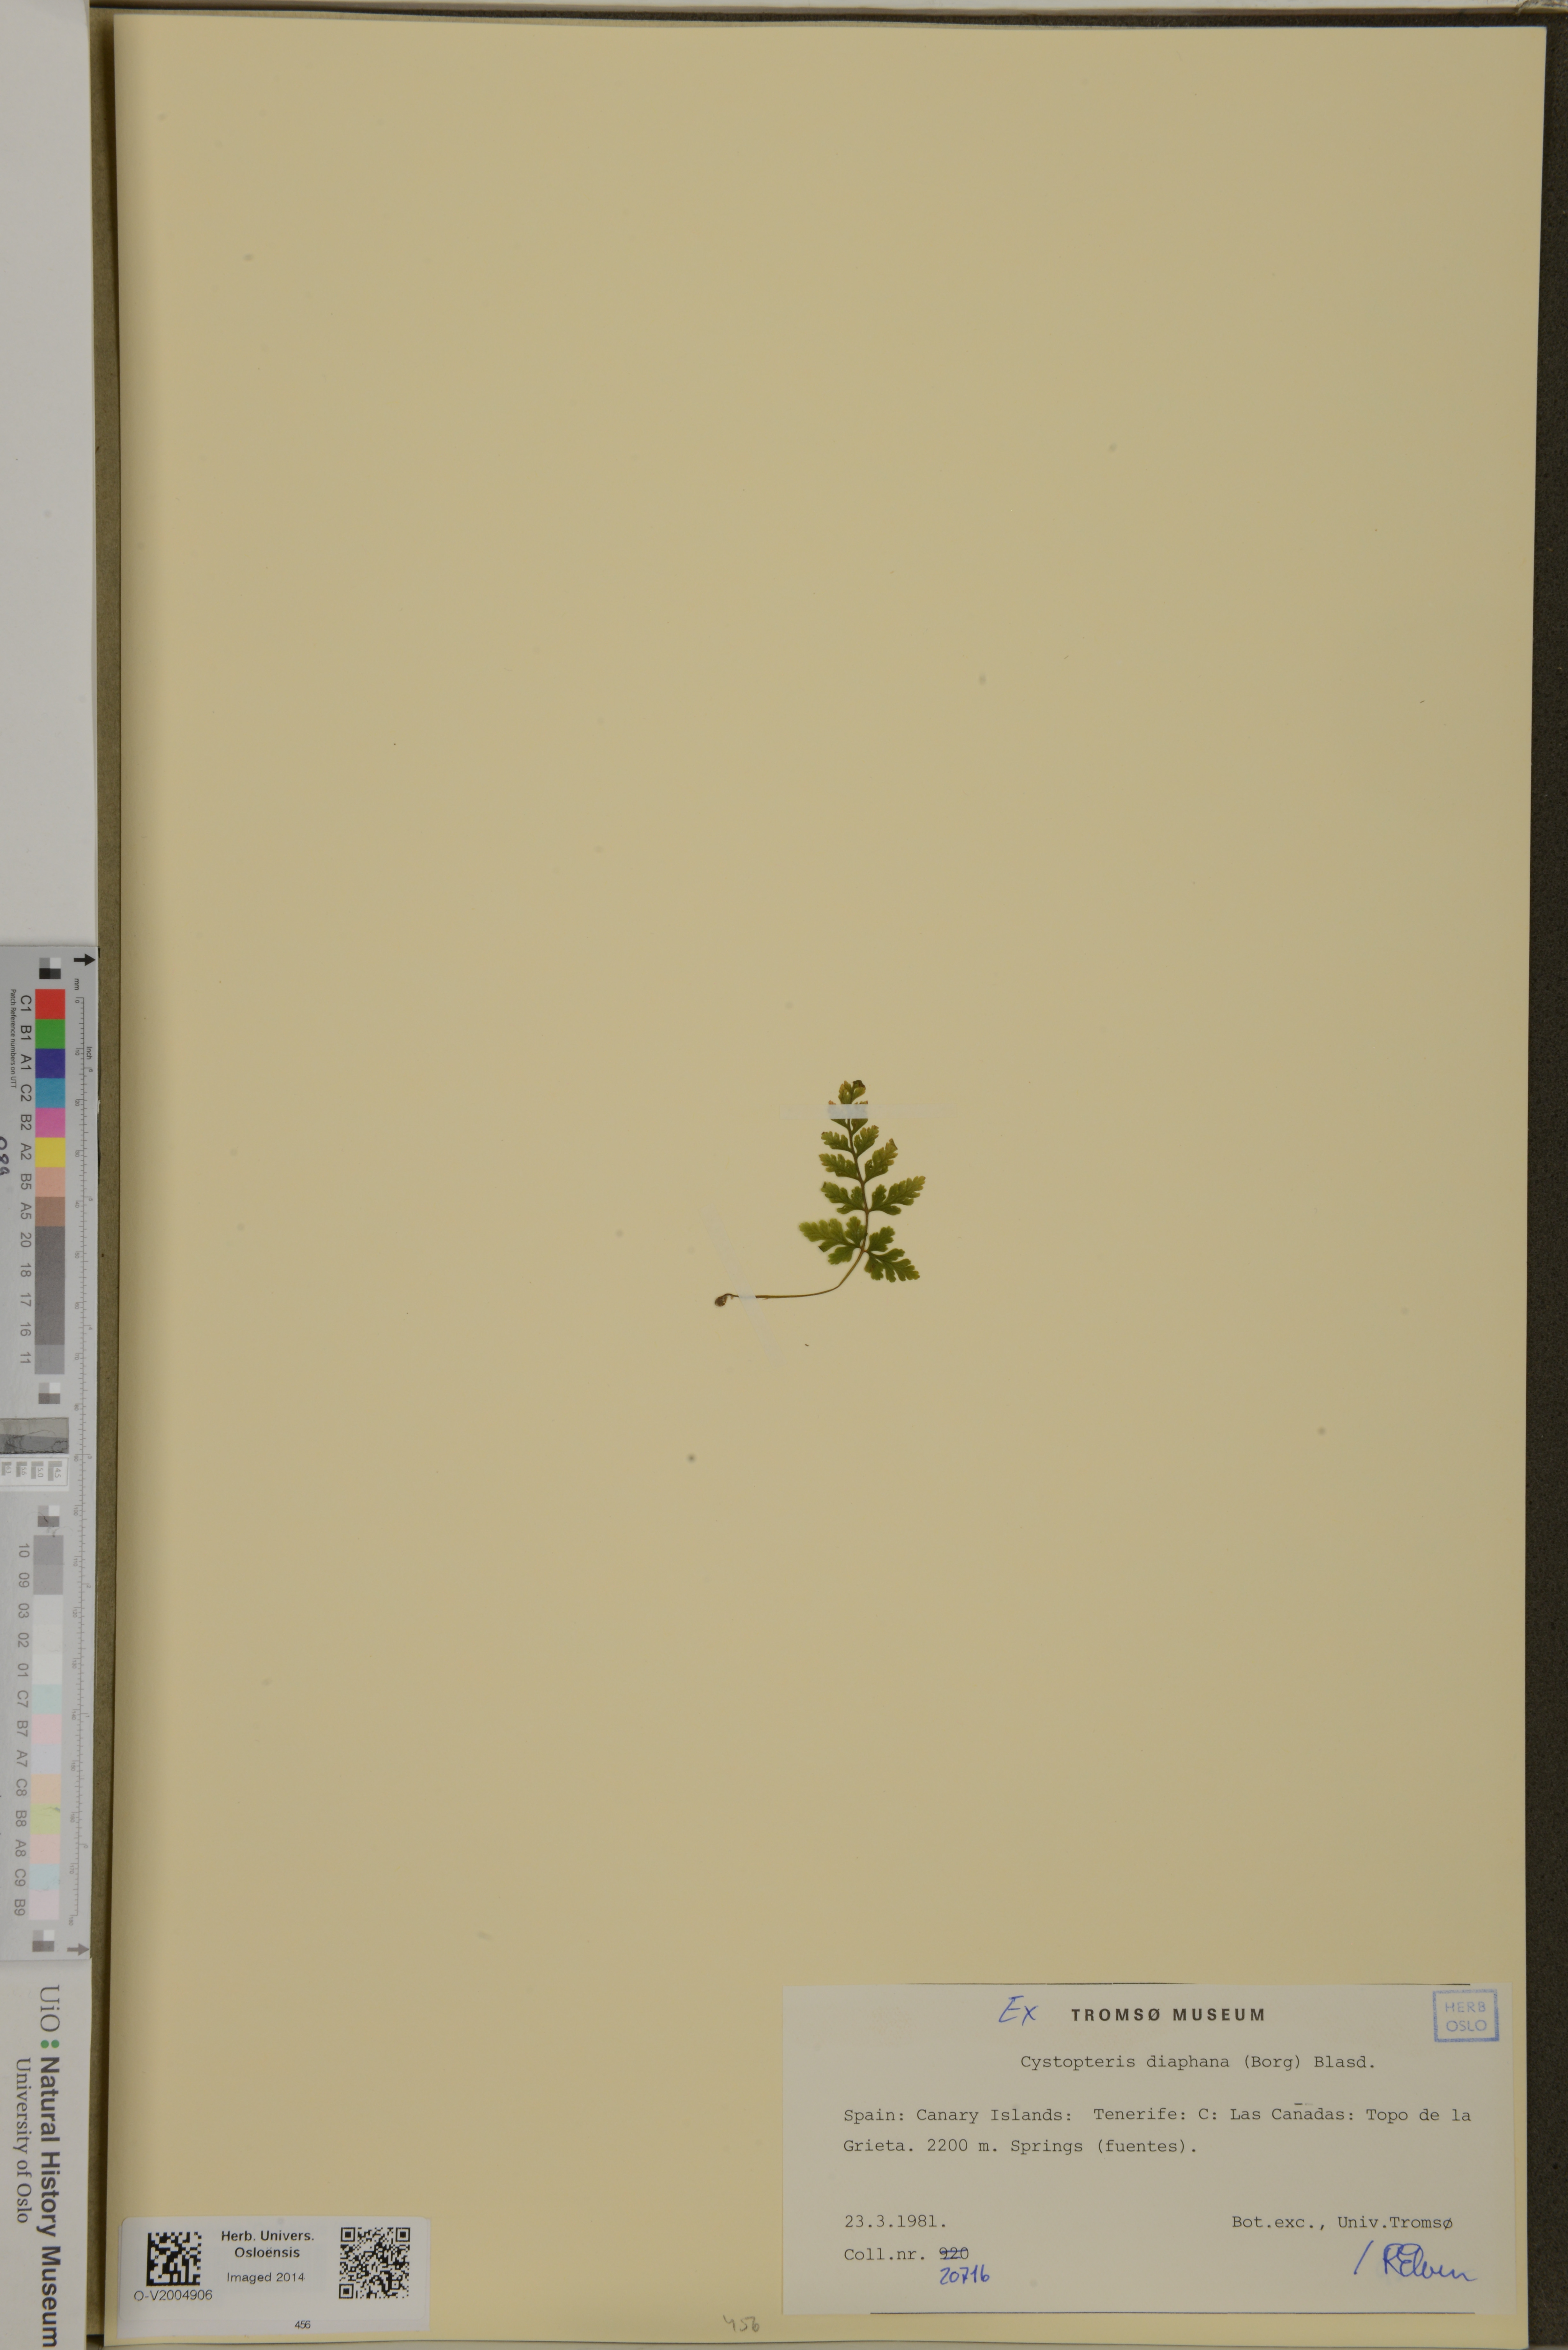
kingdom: Plantae
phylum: Tracheophyta
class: Polypodiopsida
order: Polypodiales
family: Cystopteridaceae
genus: Cystopteris
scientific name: Cystopteris diaphana
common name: Greenish bladder-fern
